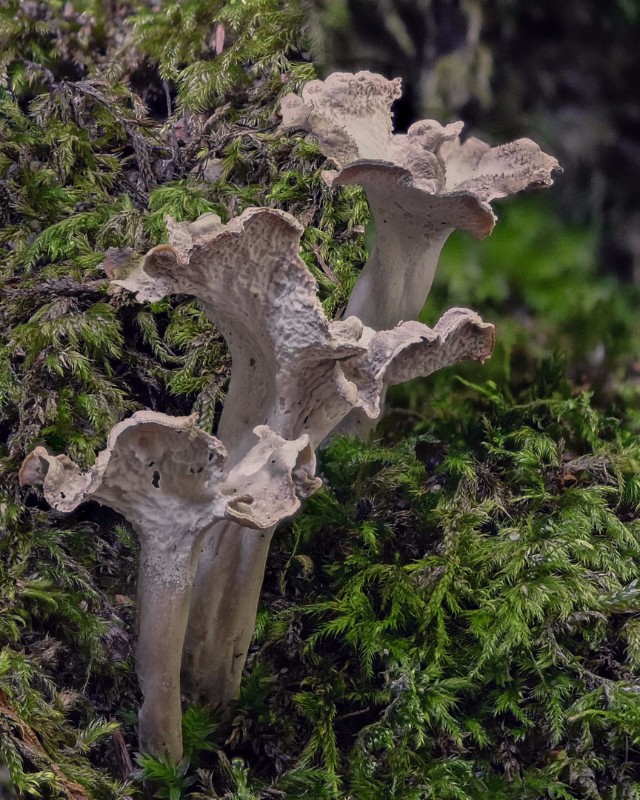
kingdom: Fungi
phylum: Basidiomycota
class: Agaricomycetes
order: Cantharellales
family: Hydnaceae
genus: Craterellus
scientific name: Craterellus undulatus
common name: liden kantarel
